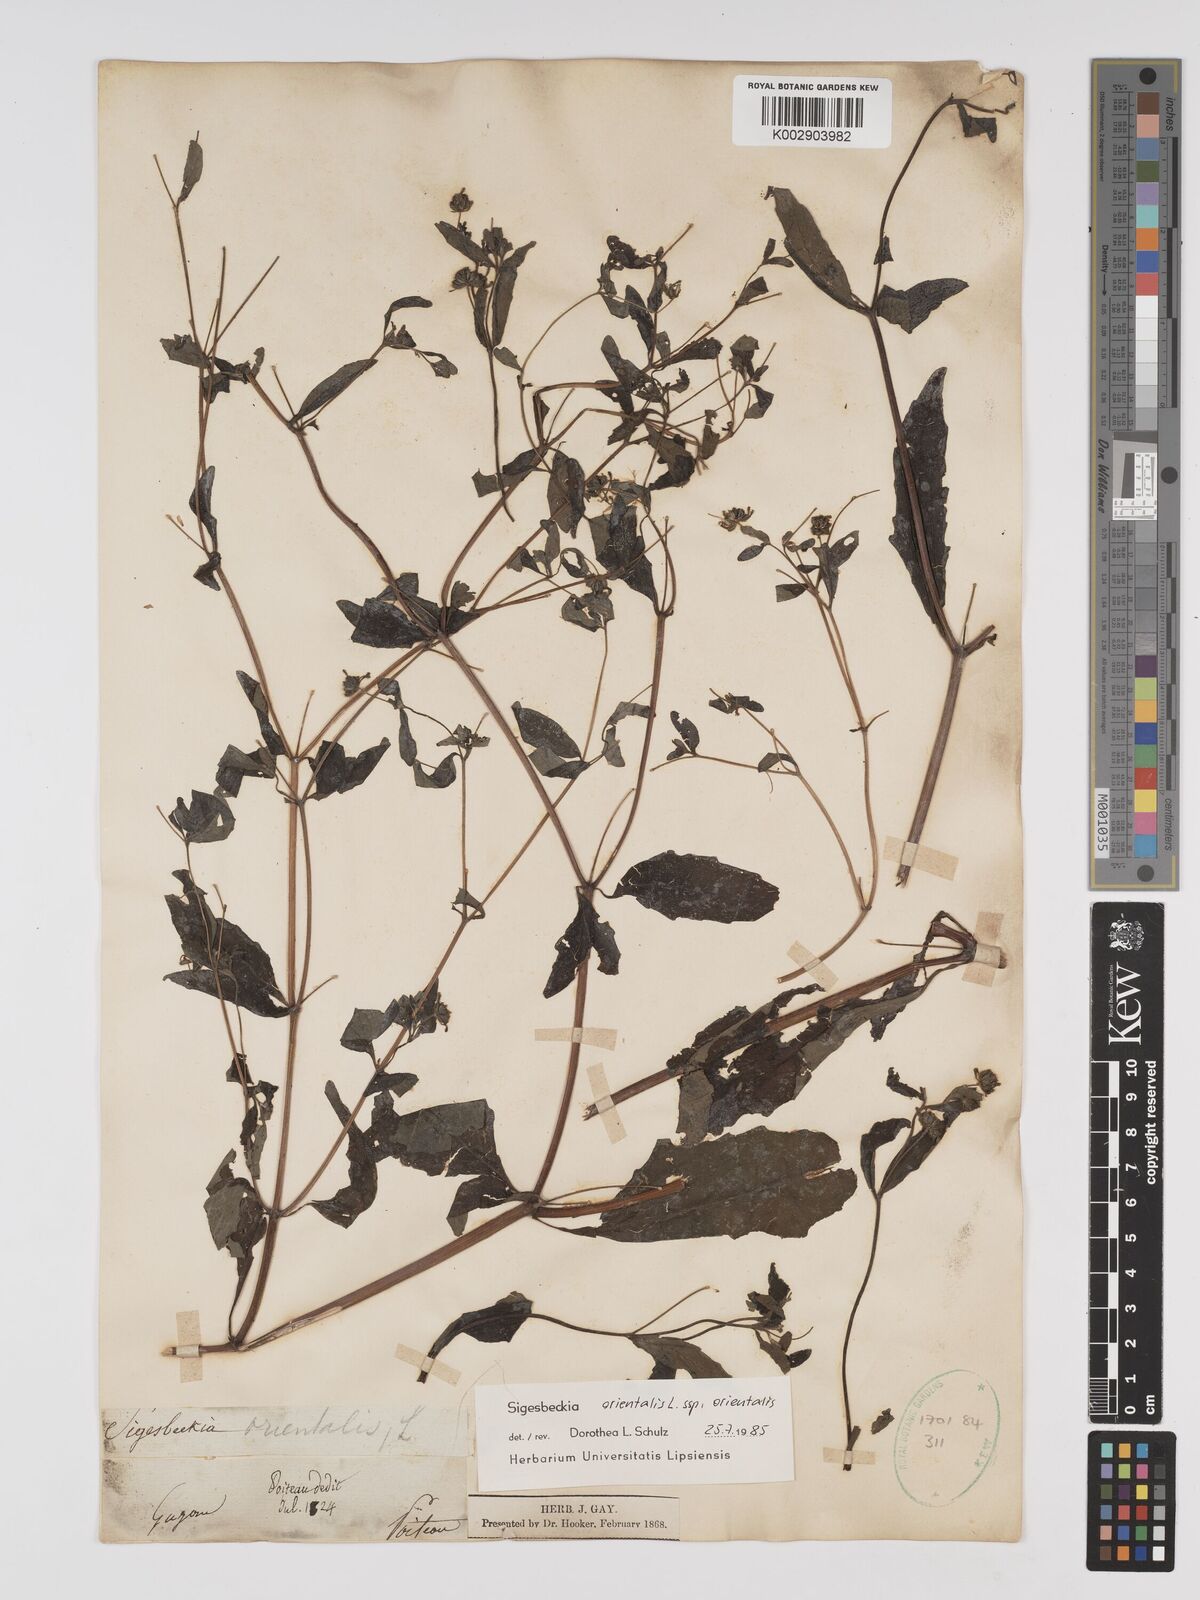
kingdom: Plantae
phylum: Tracheophyta
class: Magnoliopsida
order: Asterales
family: Asteraceae
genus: Sigesbeckia
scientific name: Sigesbeckia orientalis
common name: Eastern st paul's-wort
